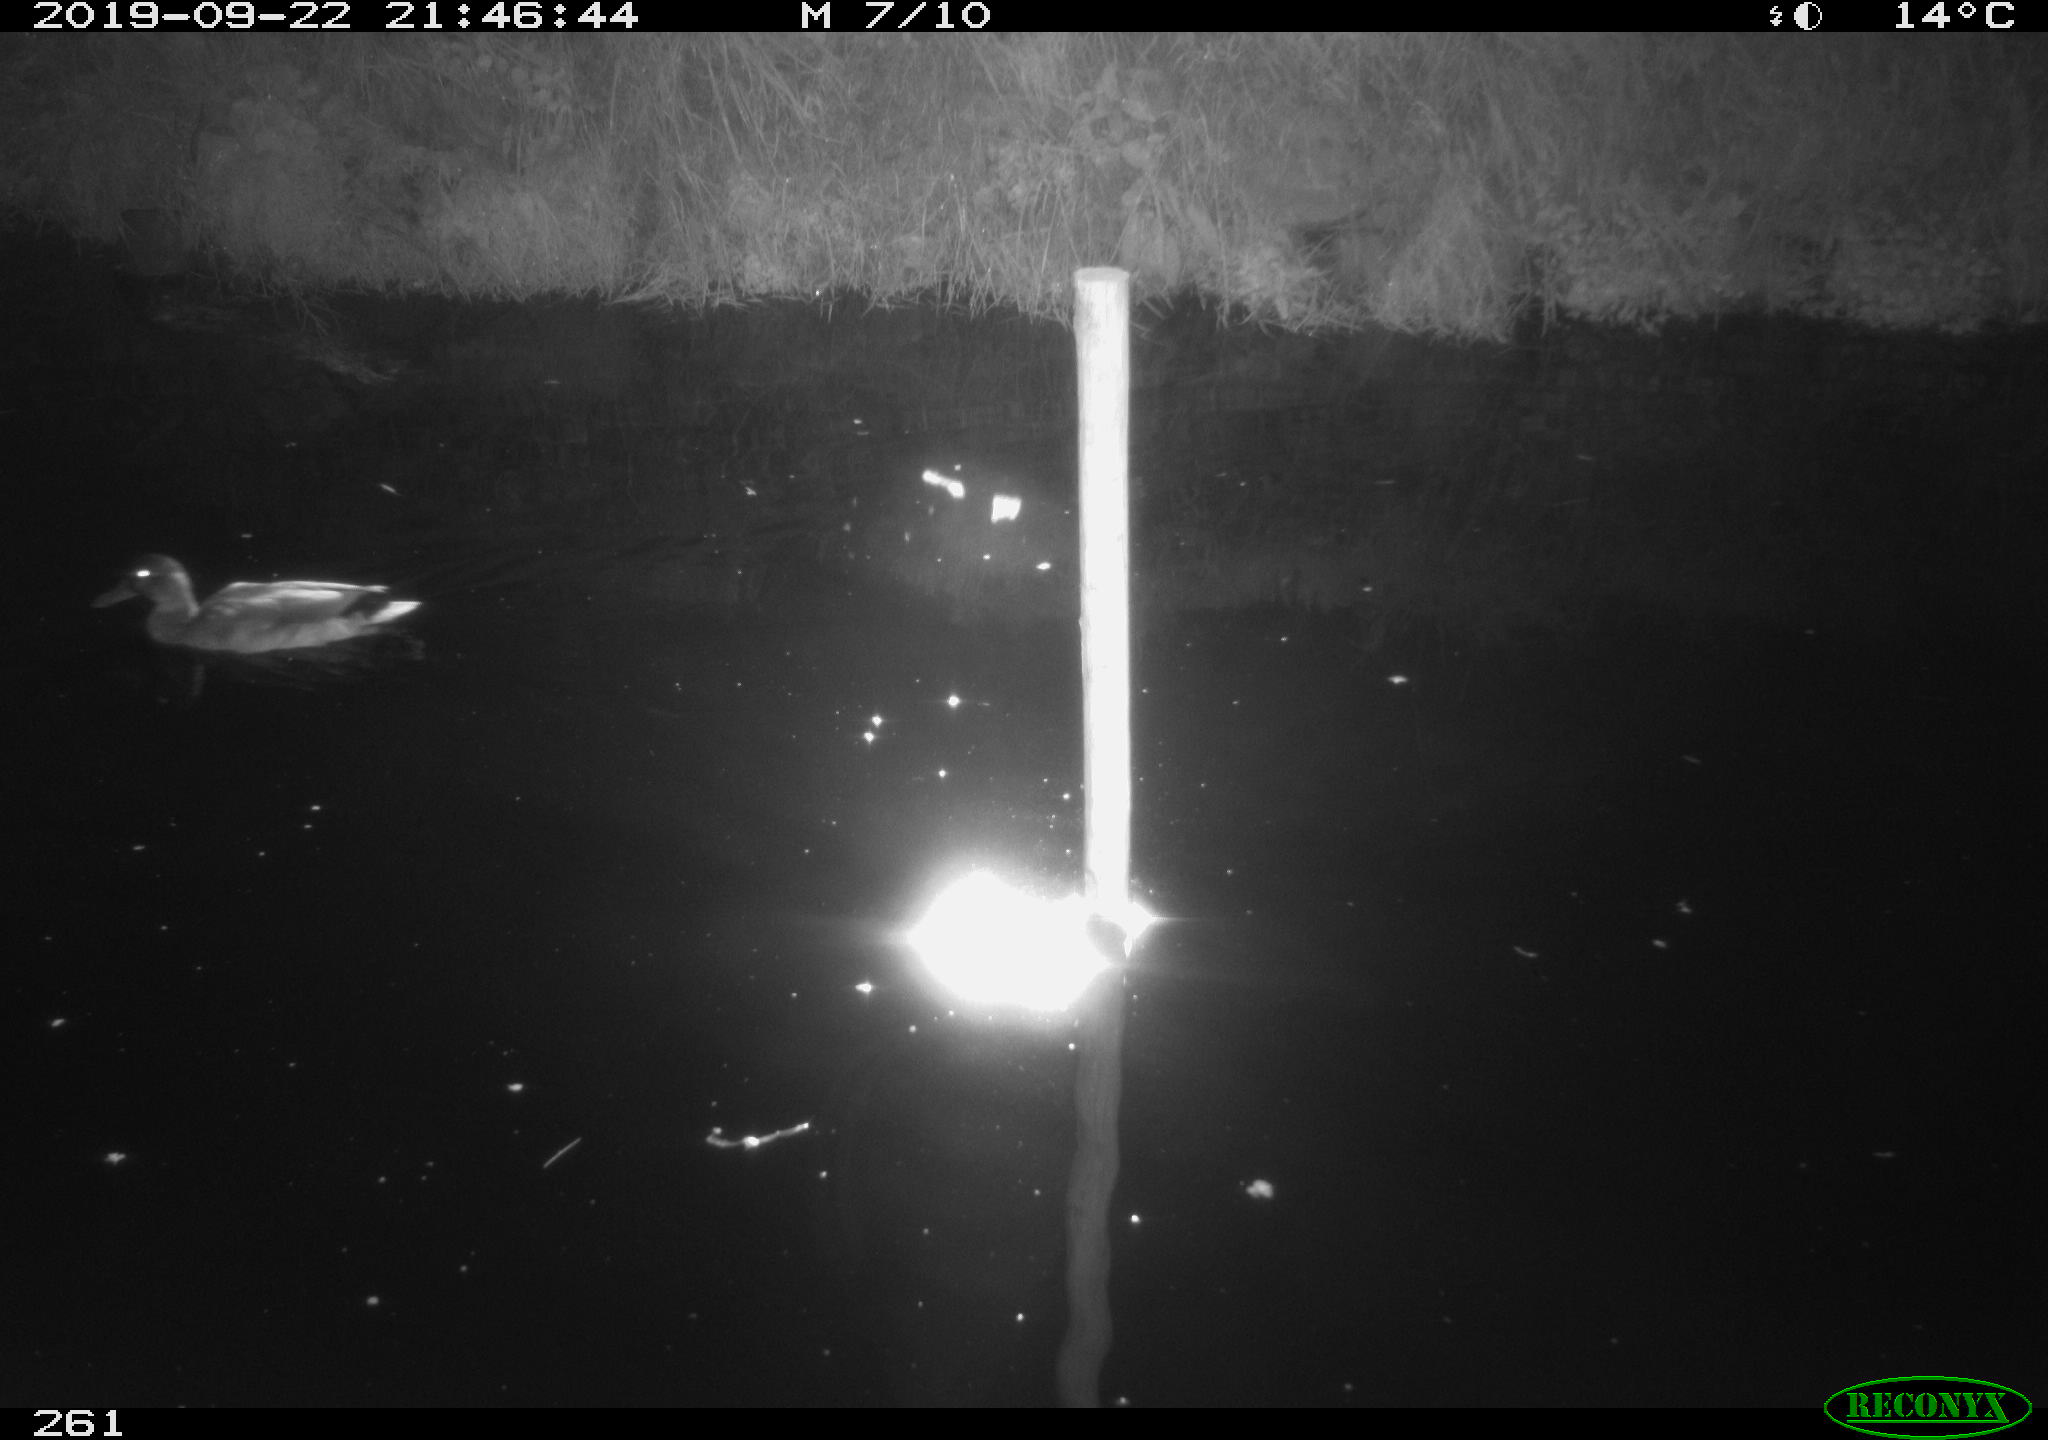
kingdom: Animalia
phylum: Chordata
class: Aves
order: Anseriformes
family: Anatidae
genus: Anas
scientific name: Anas platyrhynchos
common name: Mallard
